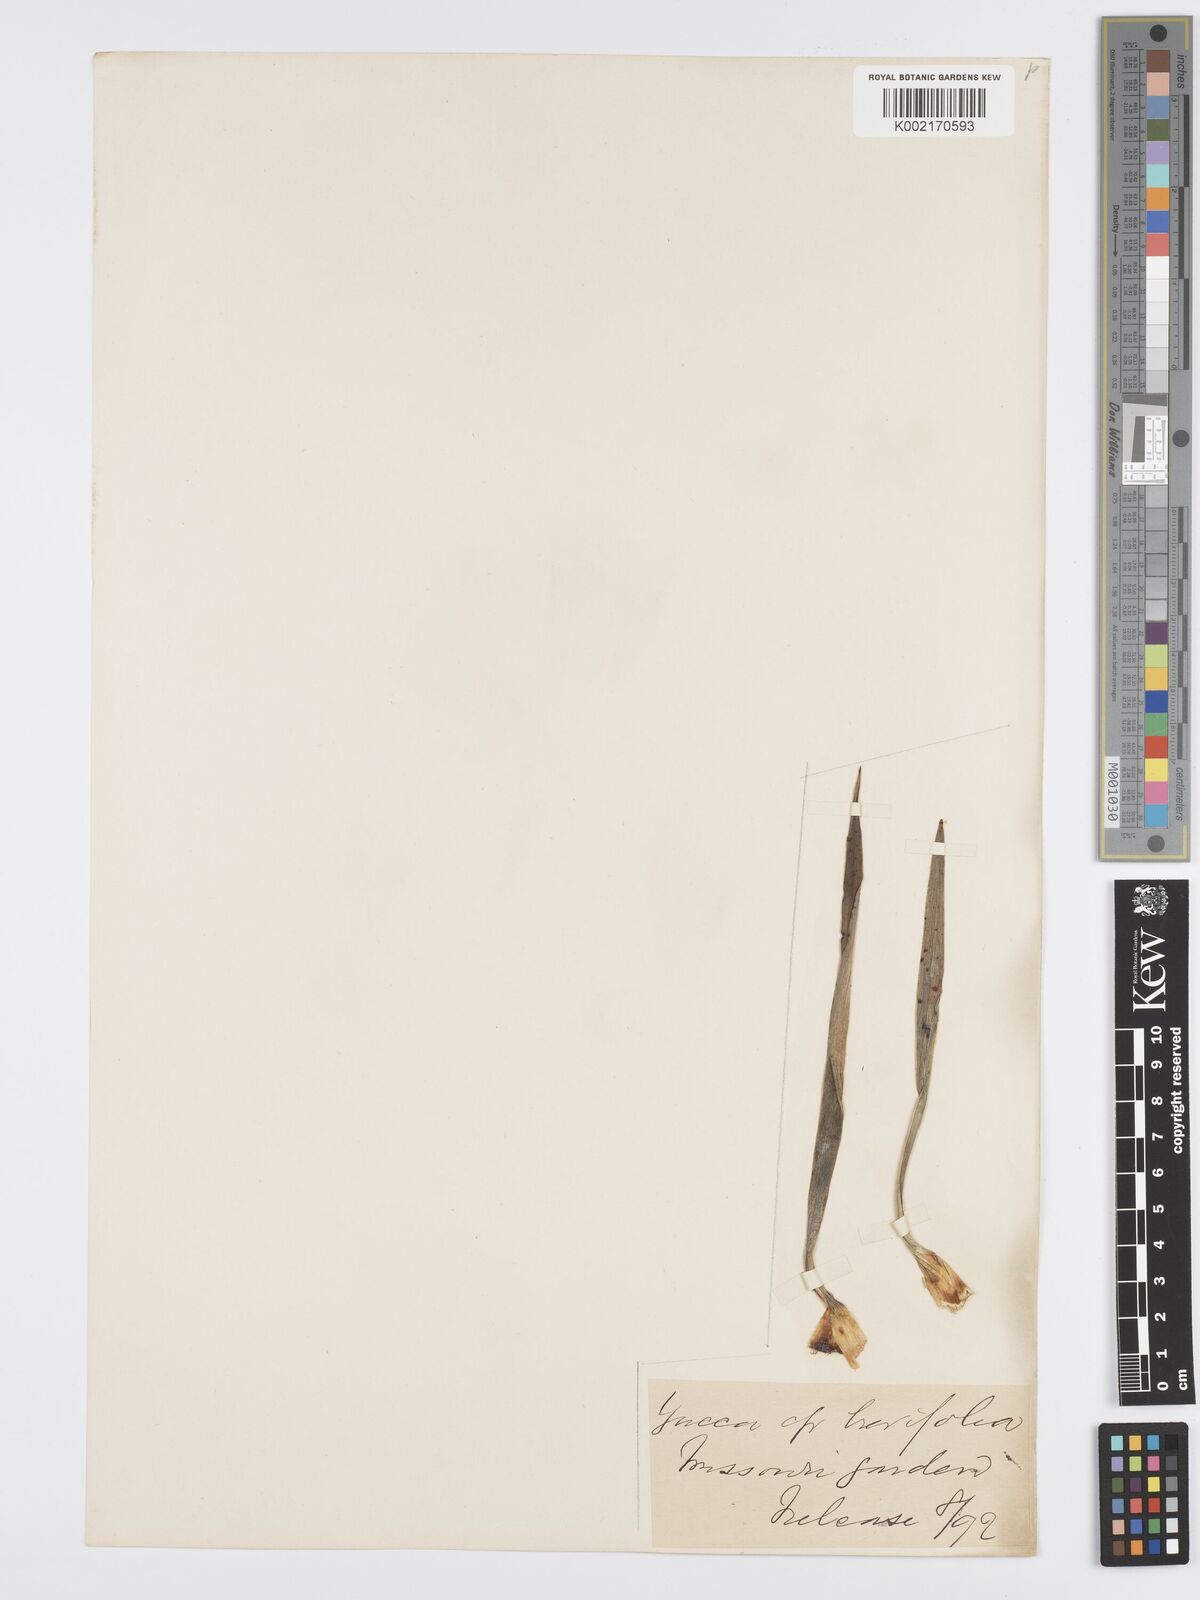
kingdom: Plantae
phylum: Tracheophyta
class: Liliopsida
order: Asparagales
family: Asparagaceae
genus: Yucca
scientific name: Yucca
